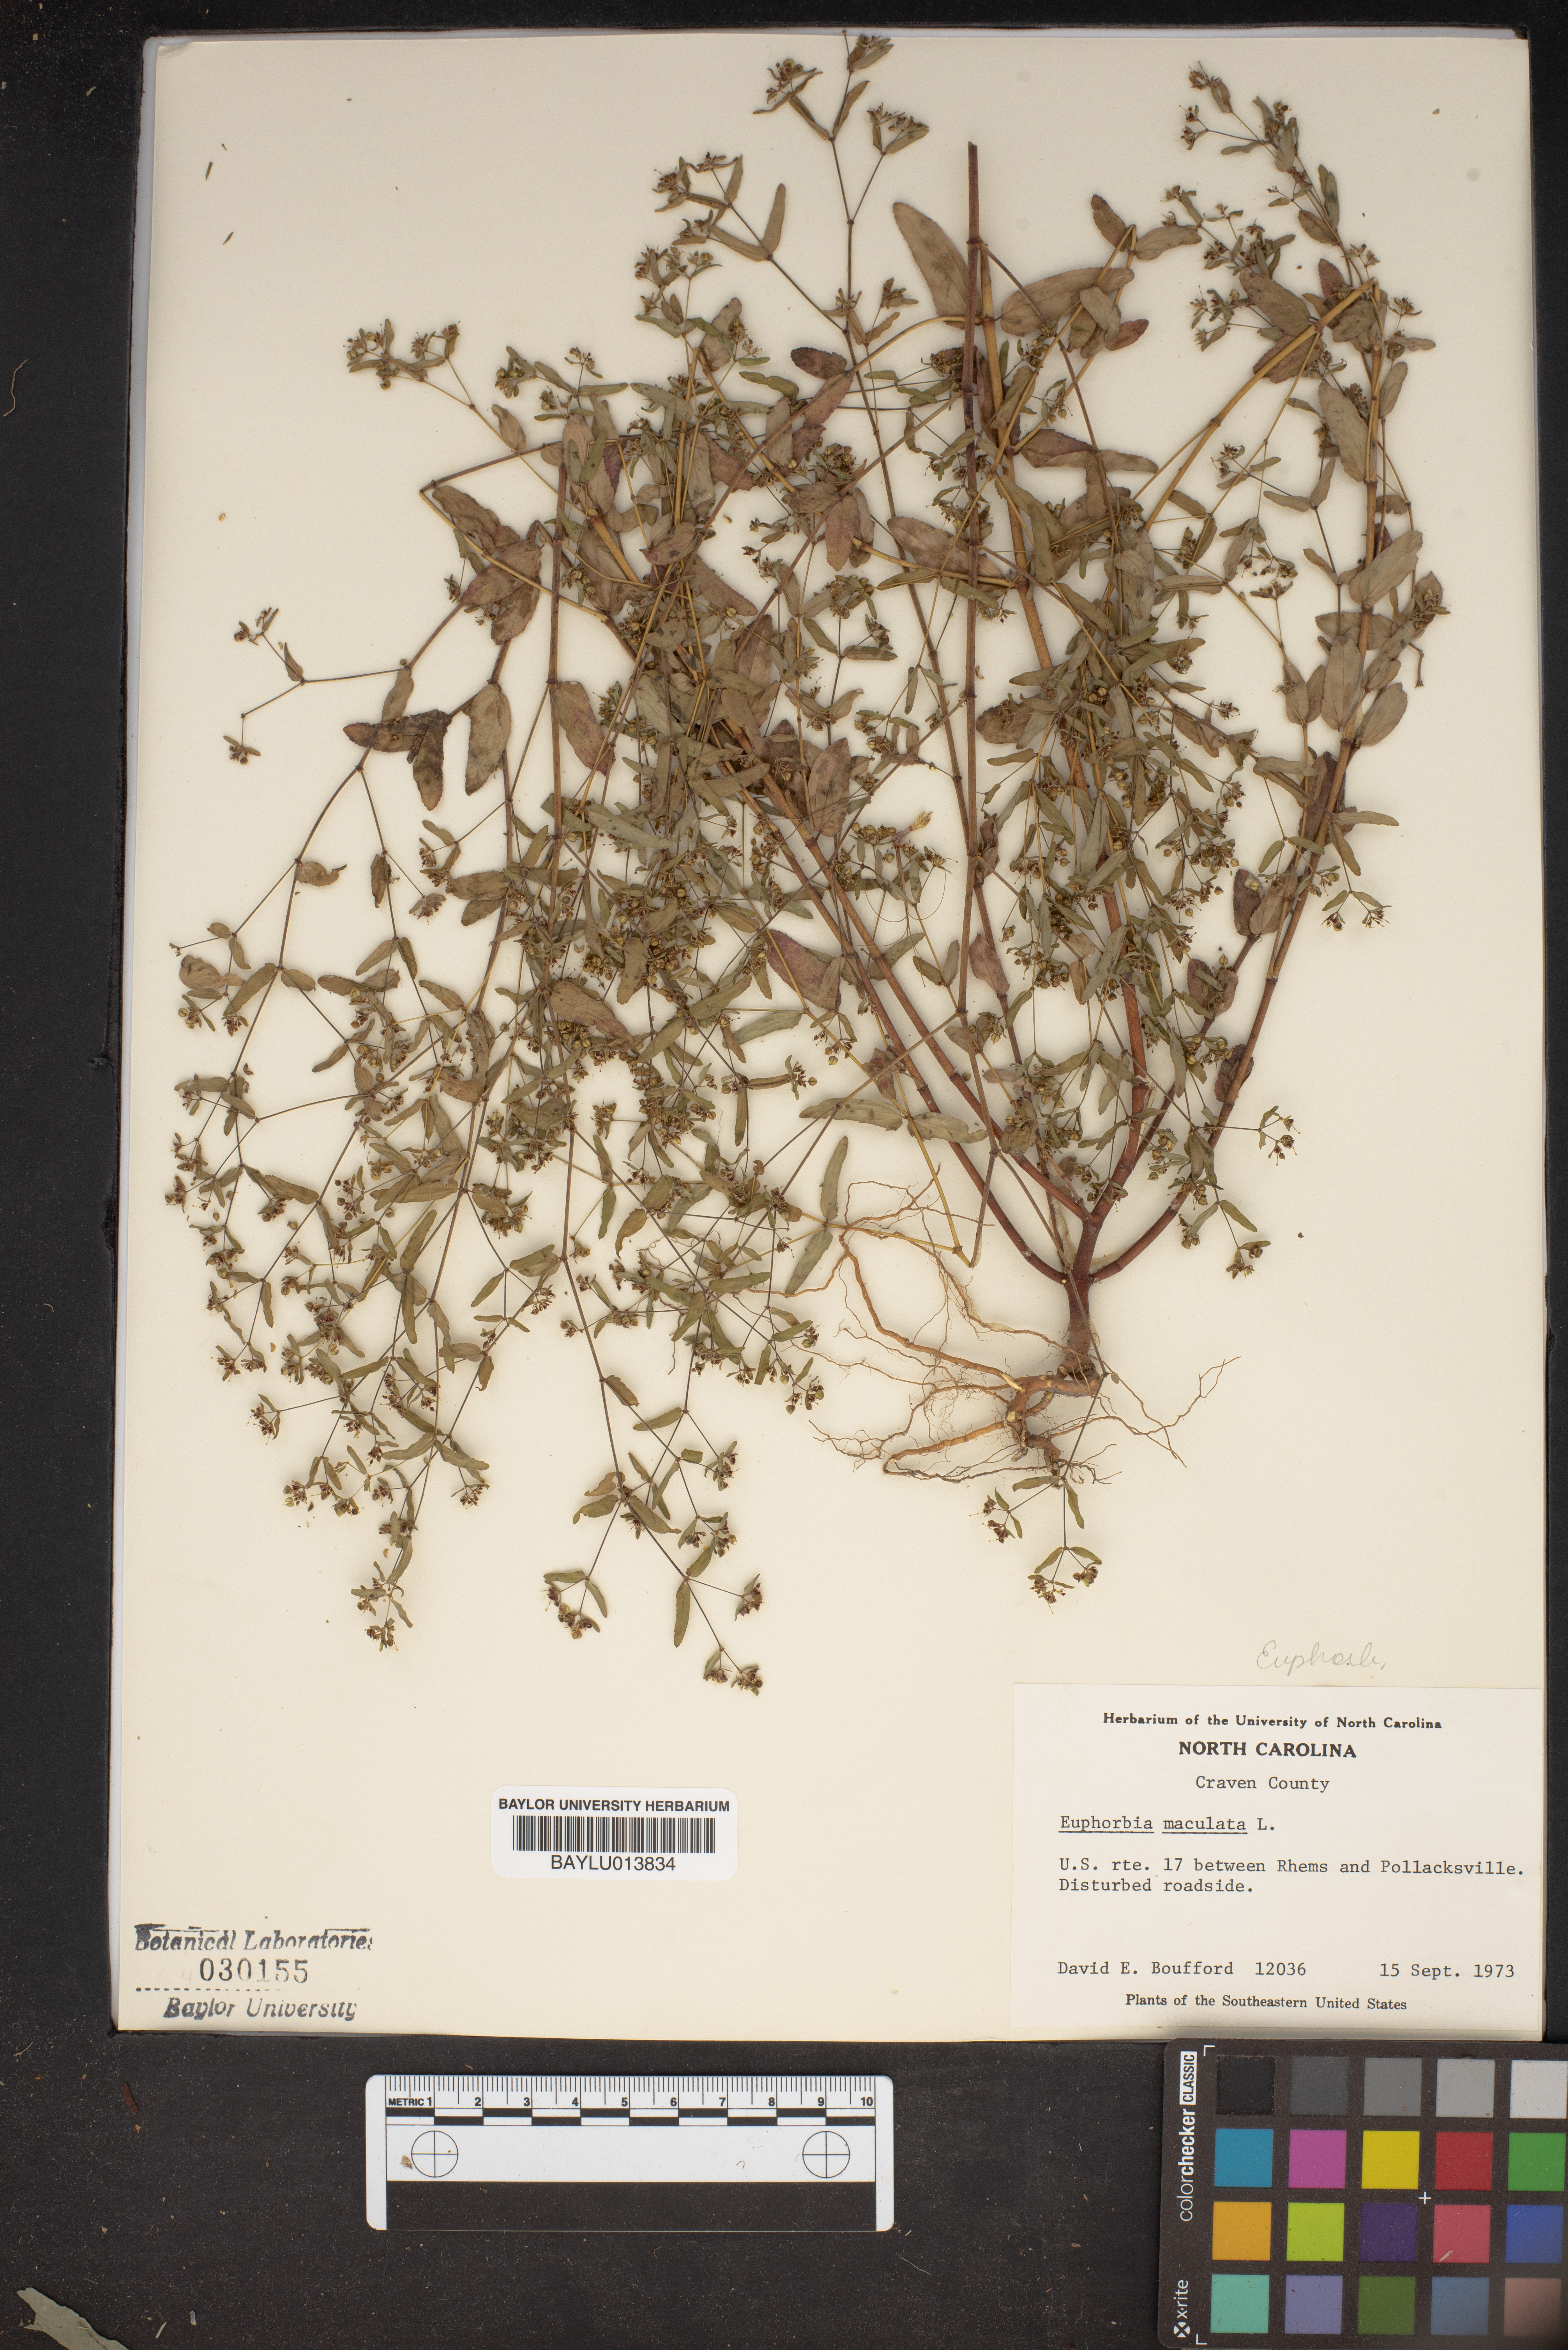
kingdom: Plantae
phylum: Tracheophyta
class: Magnoliopsida
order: Malpighiales
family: Euphorbiaceae
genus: Euphorbia
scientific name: Euphorbia maculata
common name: Spotted spurge
